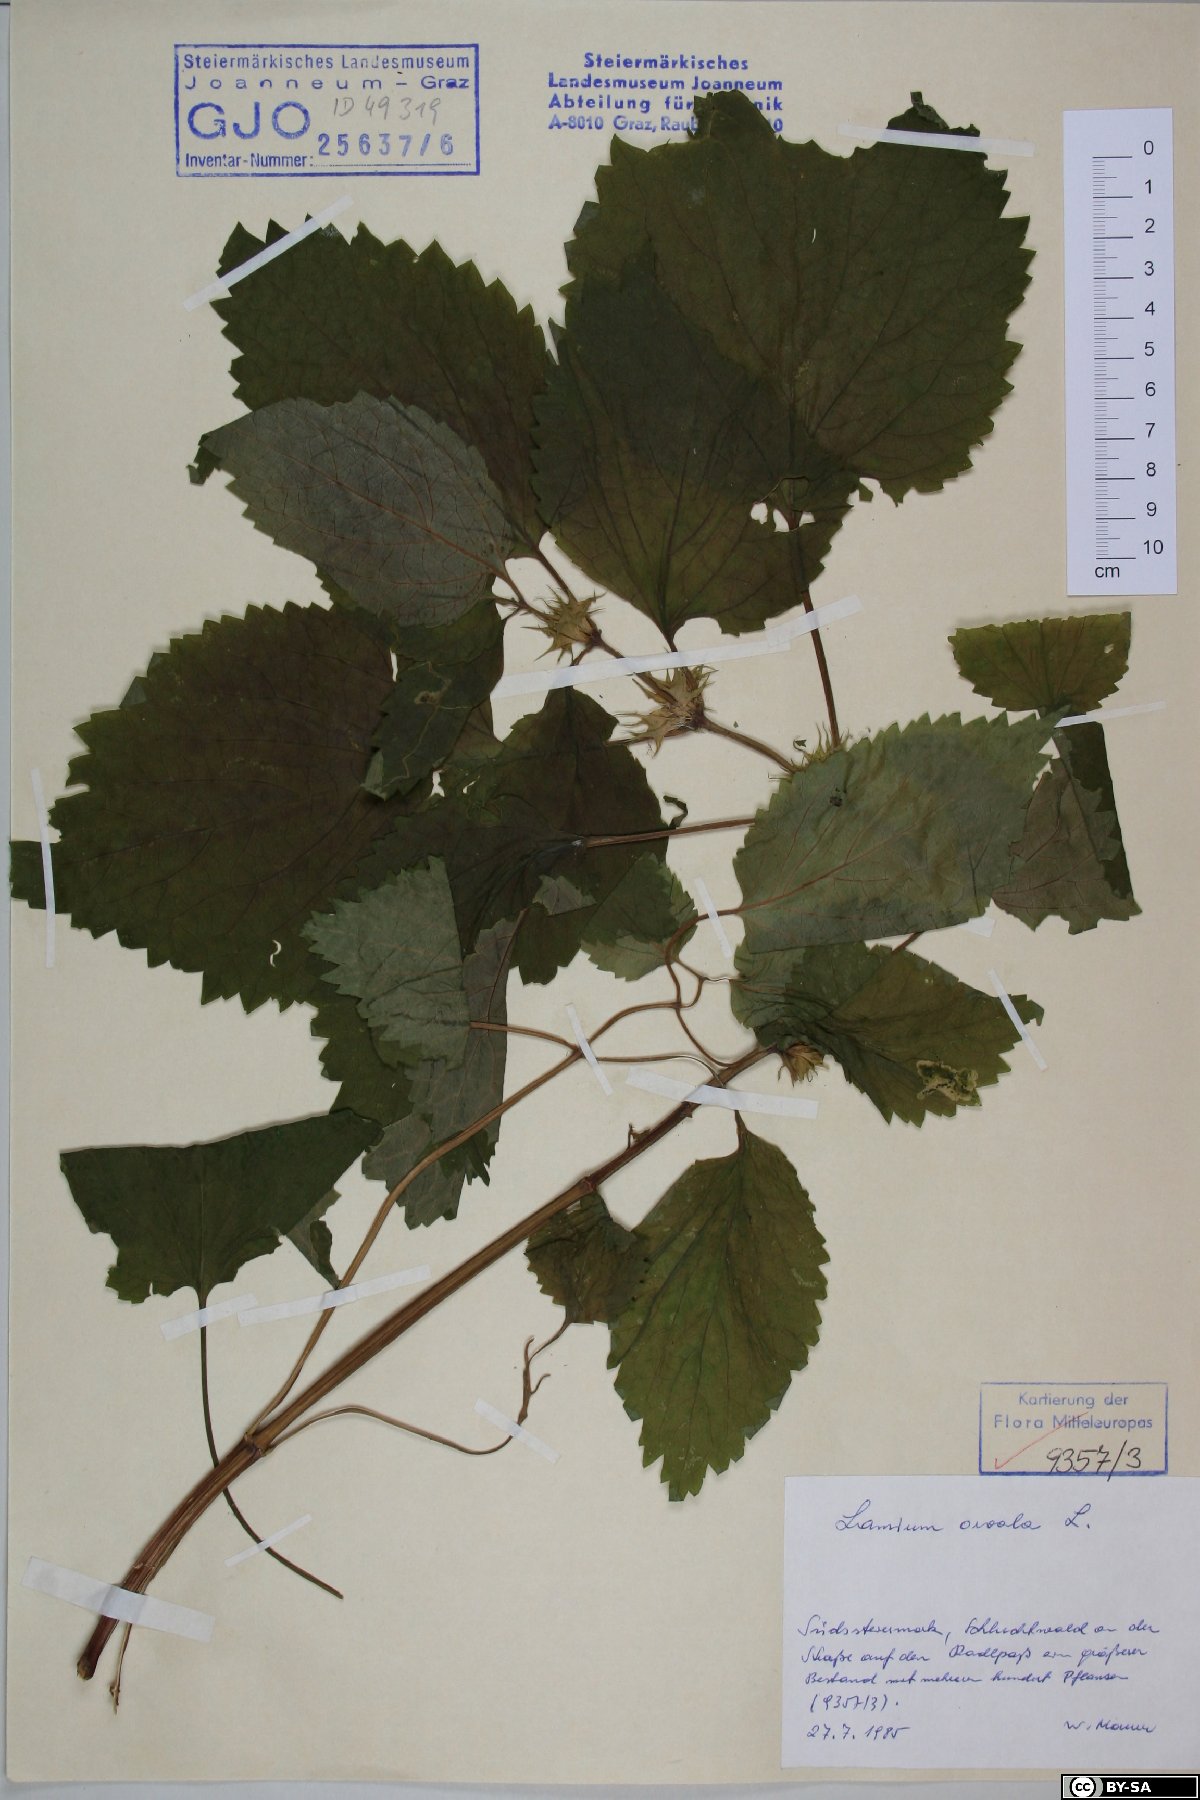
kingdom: Plantae
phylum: Tracheophyta
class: Magnoliopsida
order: Lamiales
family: Lamiaceae
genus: Lamium
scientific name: Lamium orvala
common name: Balm-leaved archangel
